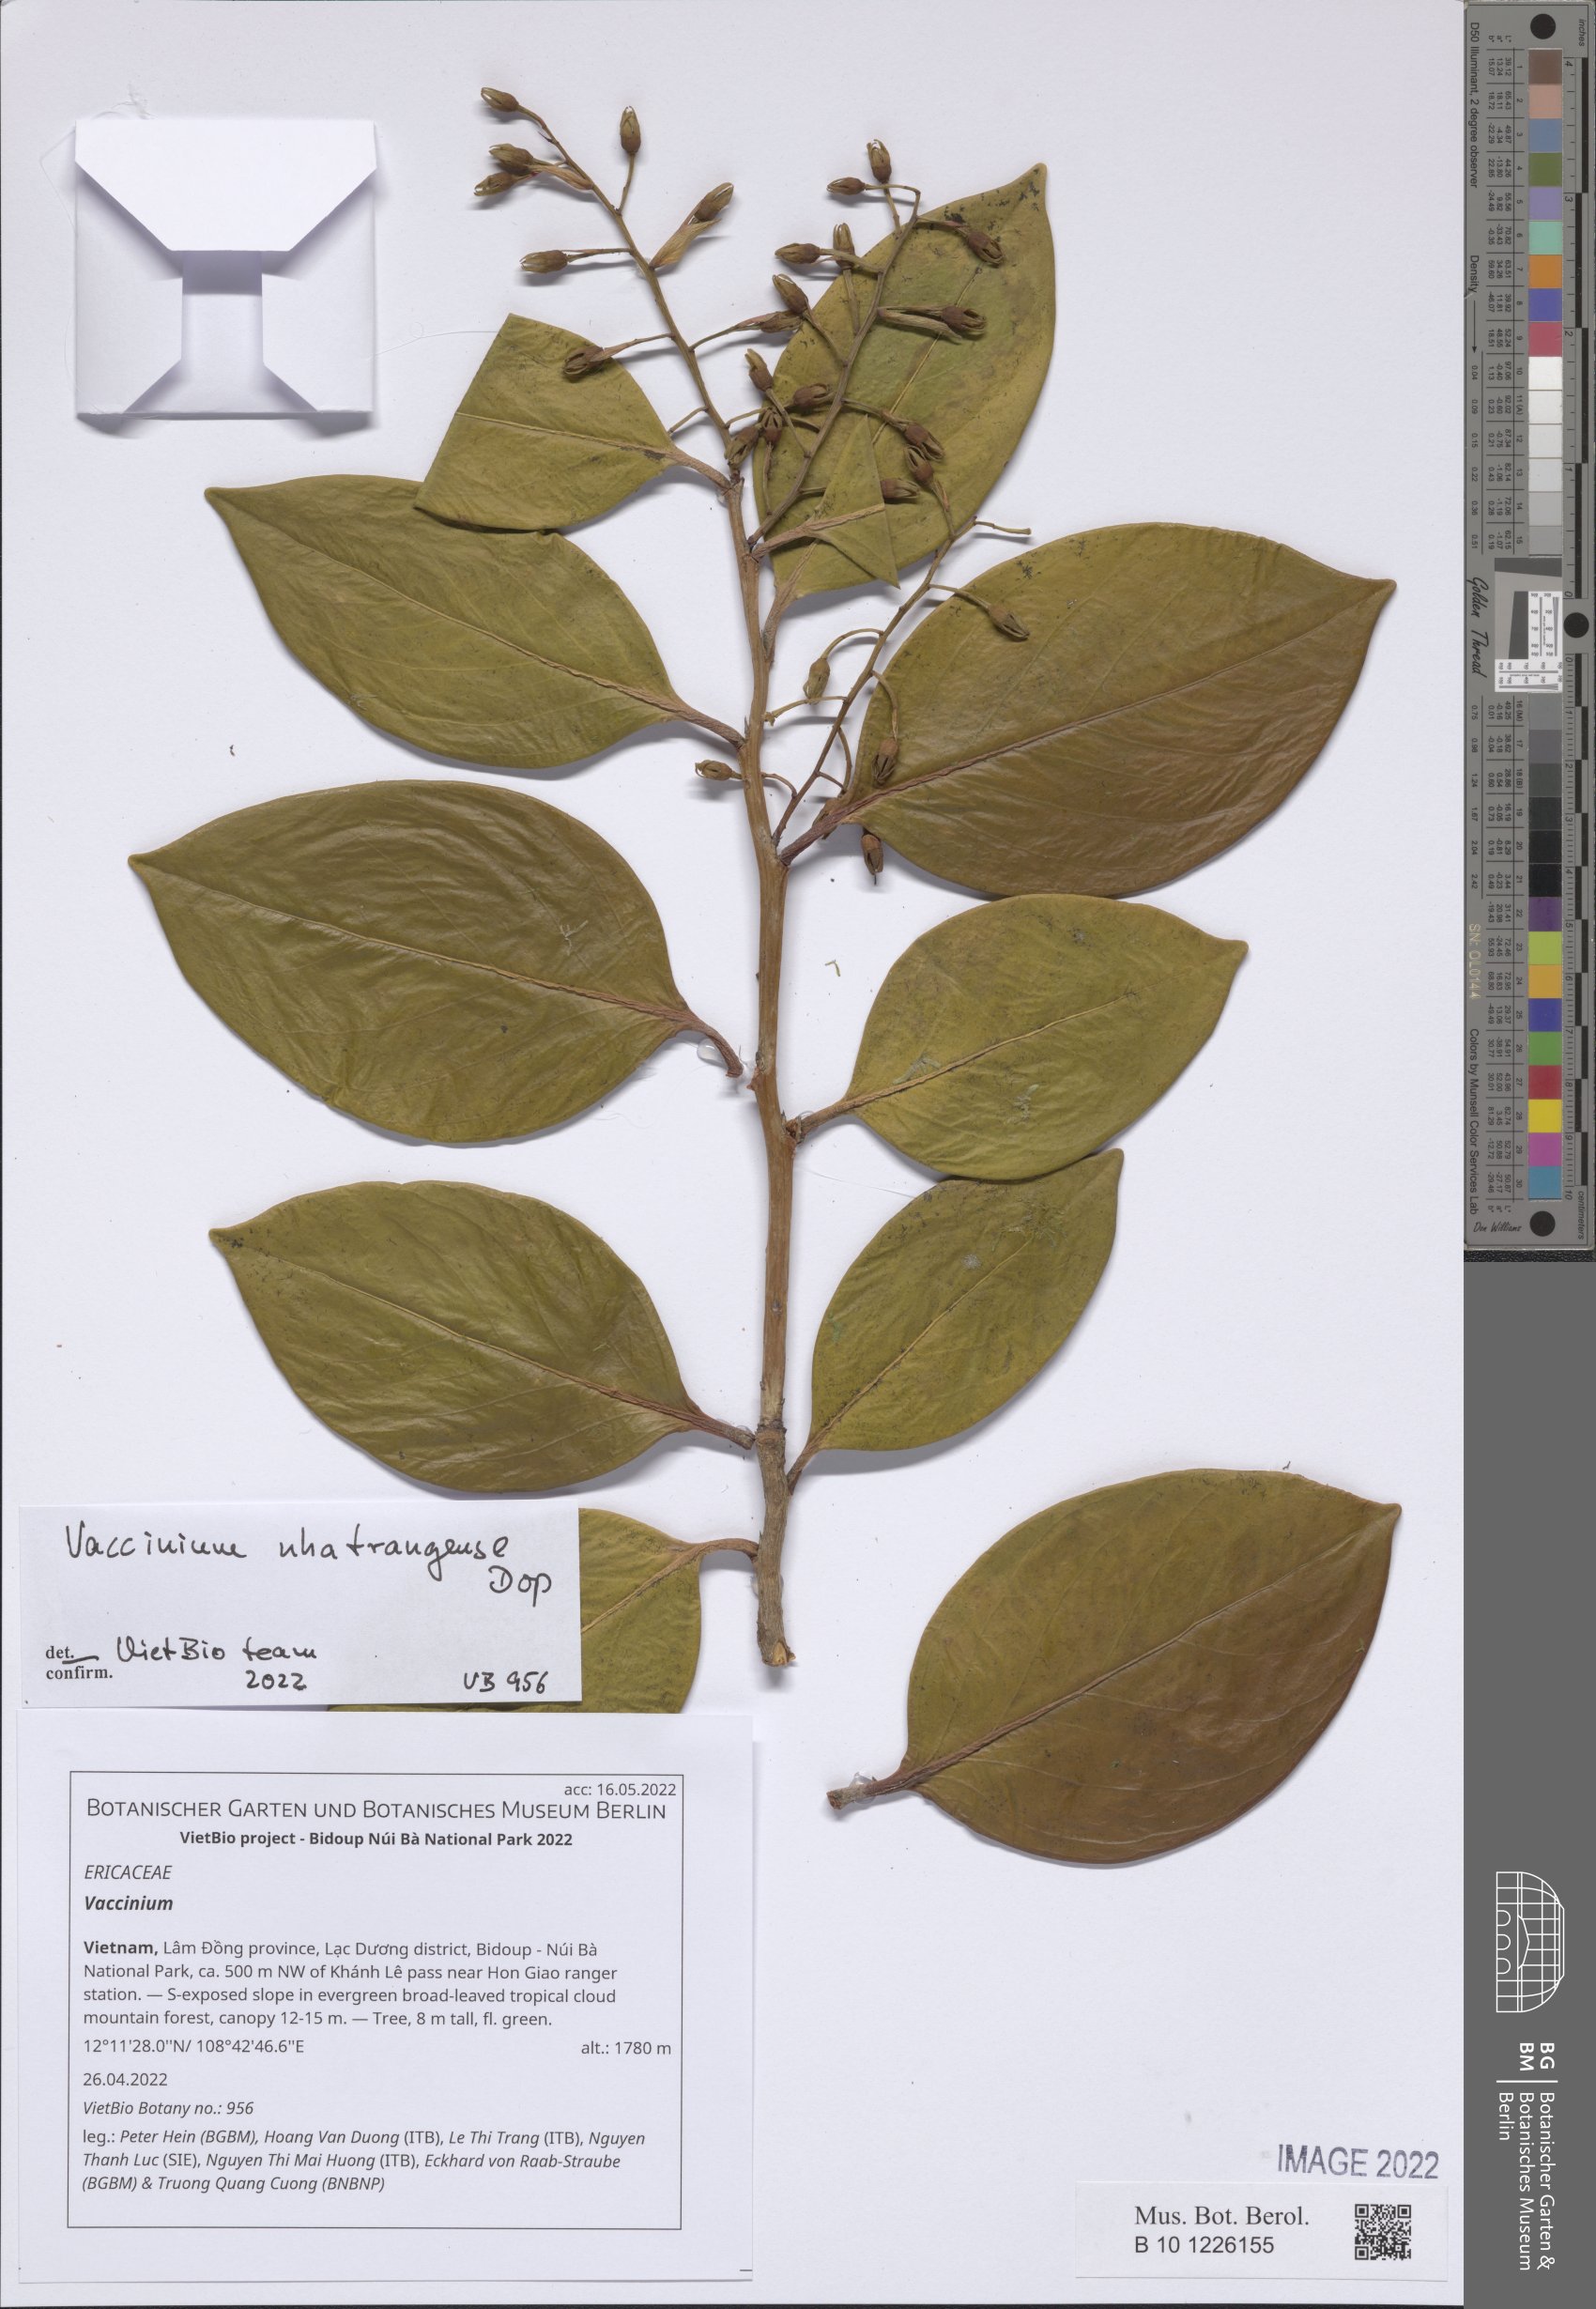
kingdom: Plantae
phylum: Tracheophyta
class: Magnoliopsida
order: Ericales
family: Ericaceae
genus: Vaccinium
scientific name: Vaccinium
